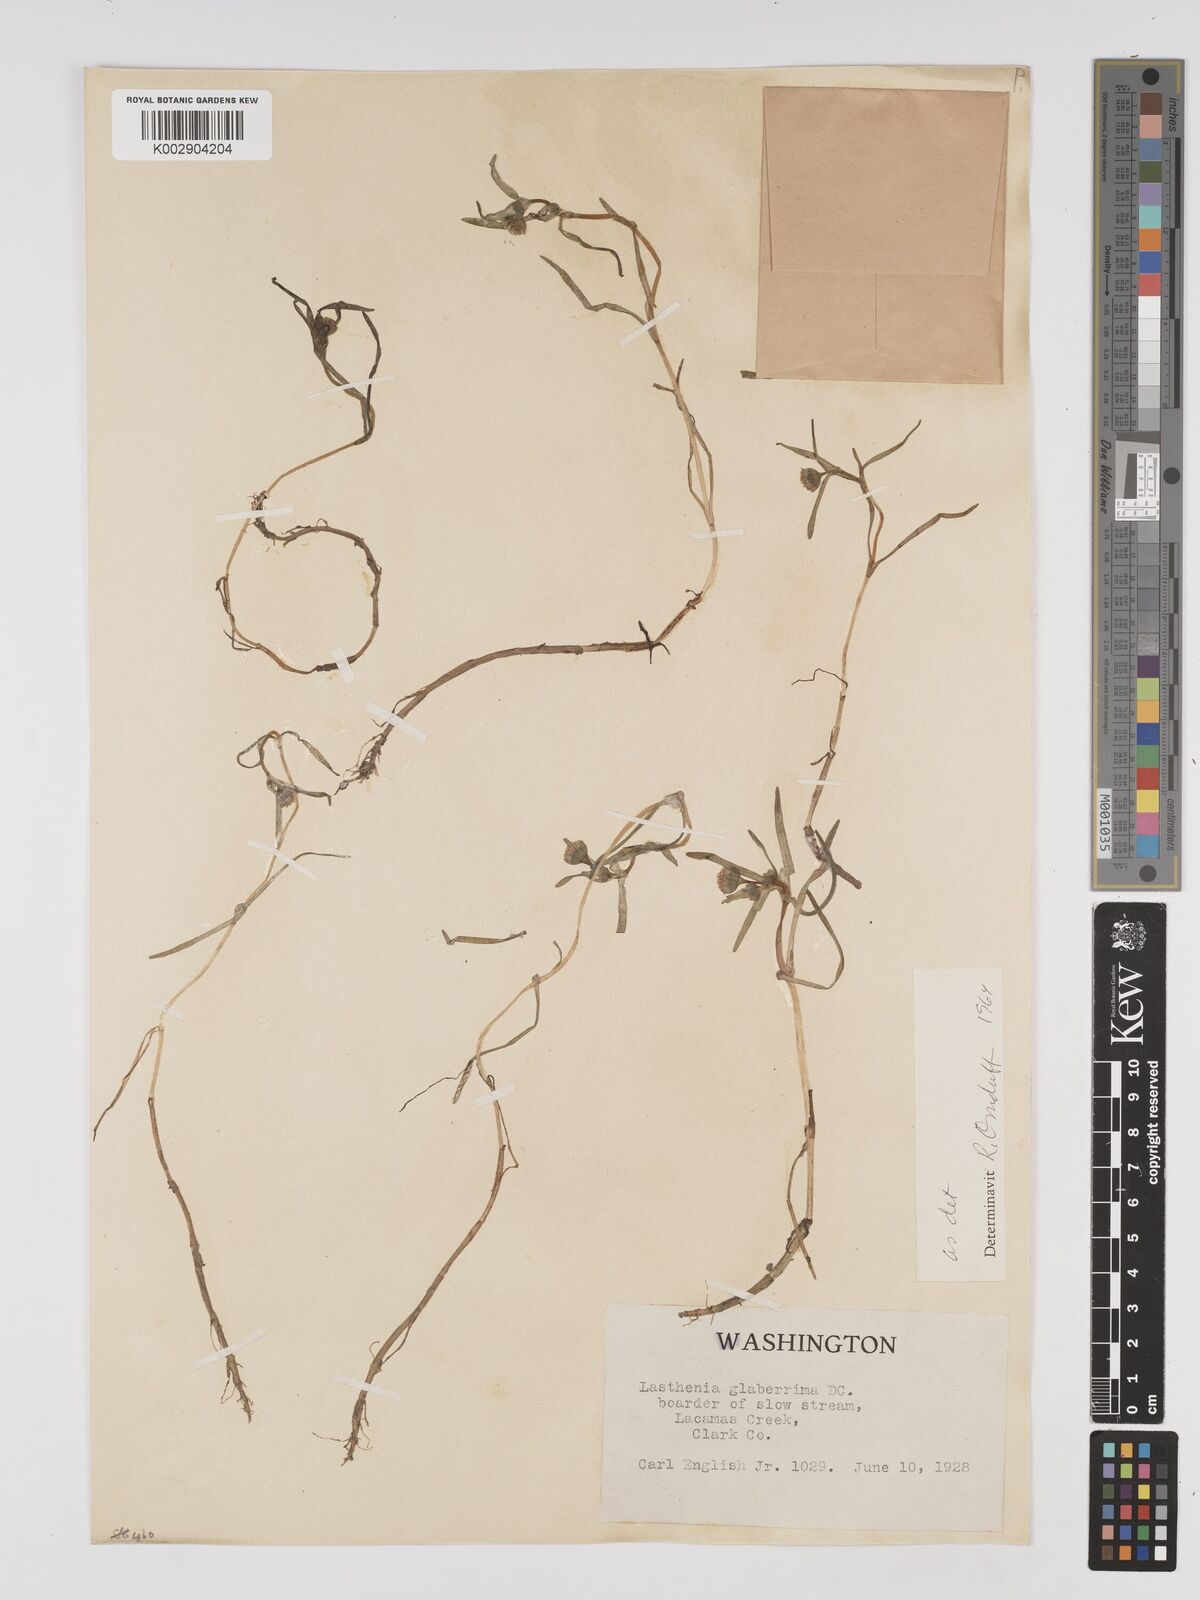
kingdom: Plantae
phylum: Tracheophyta
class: Magnoliopsida
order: Asterales
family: Asteraceae
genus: Lasthenia
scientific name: Lasthenia glaberrima
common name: Smooth goldfields
